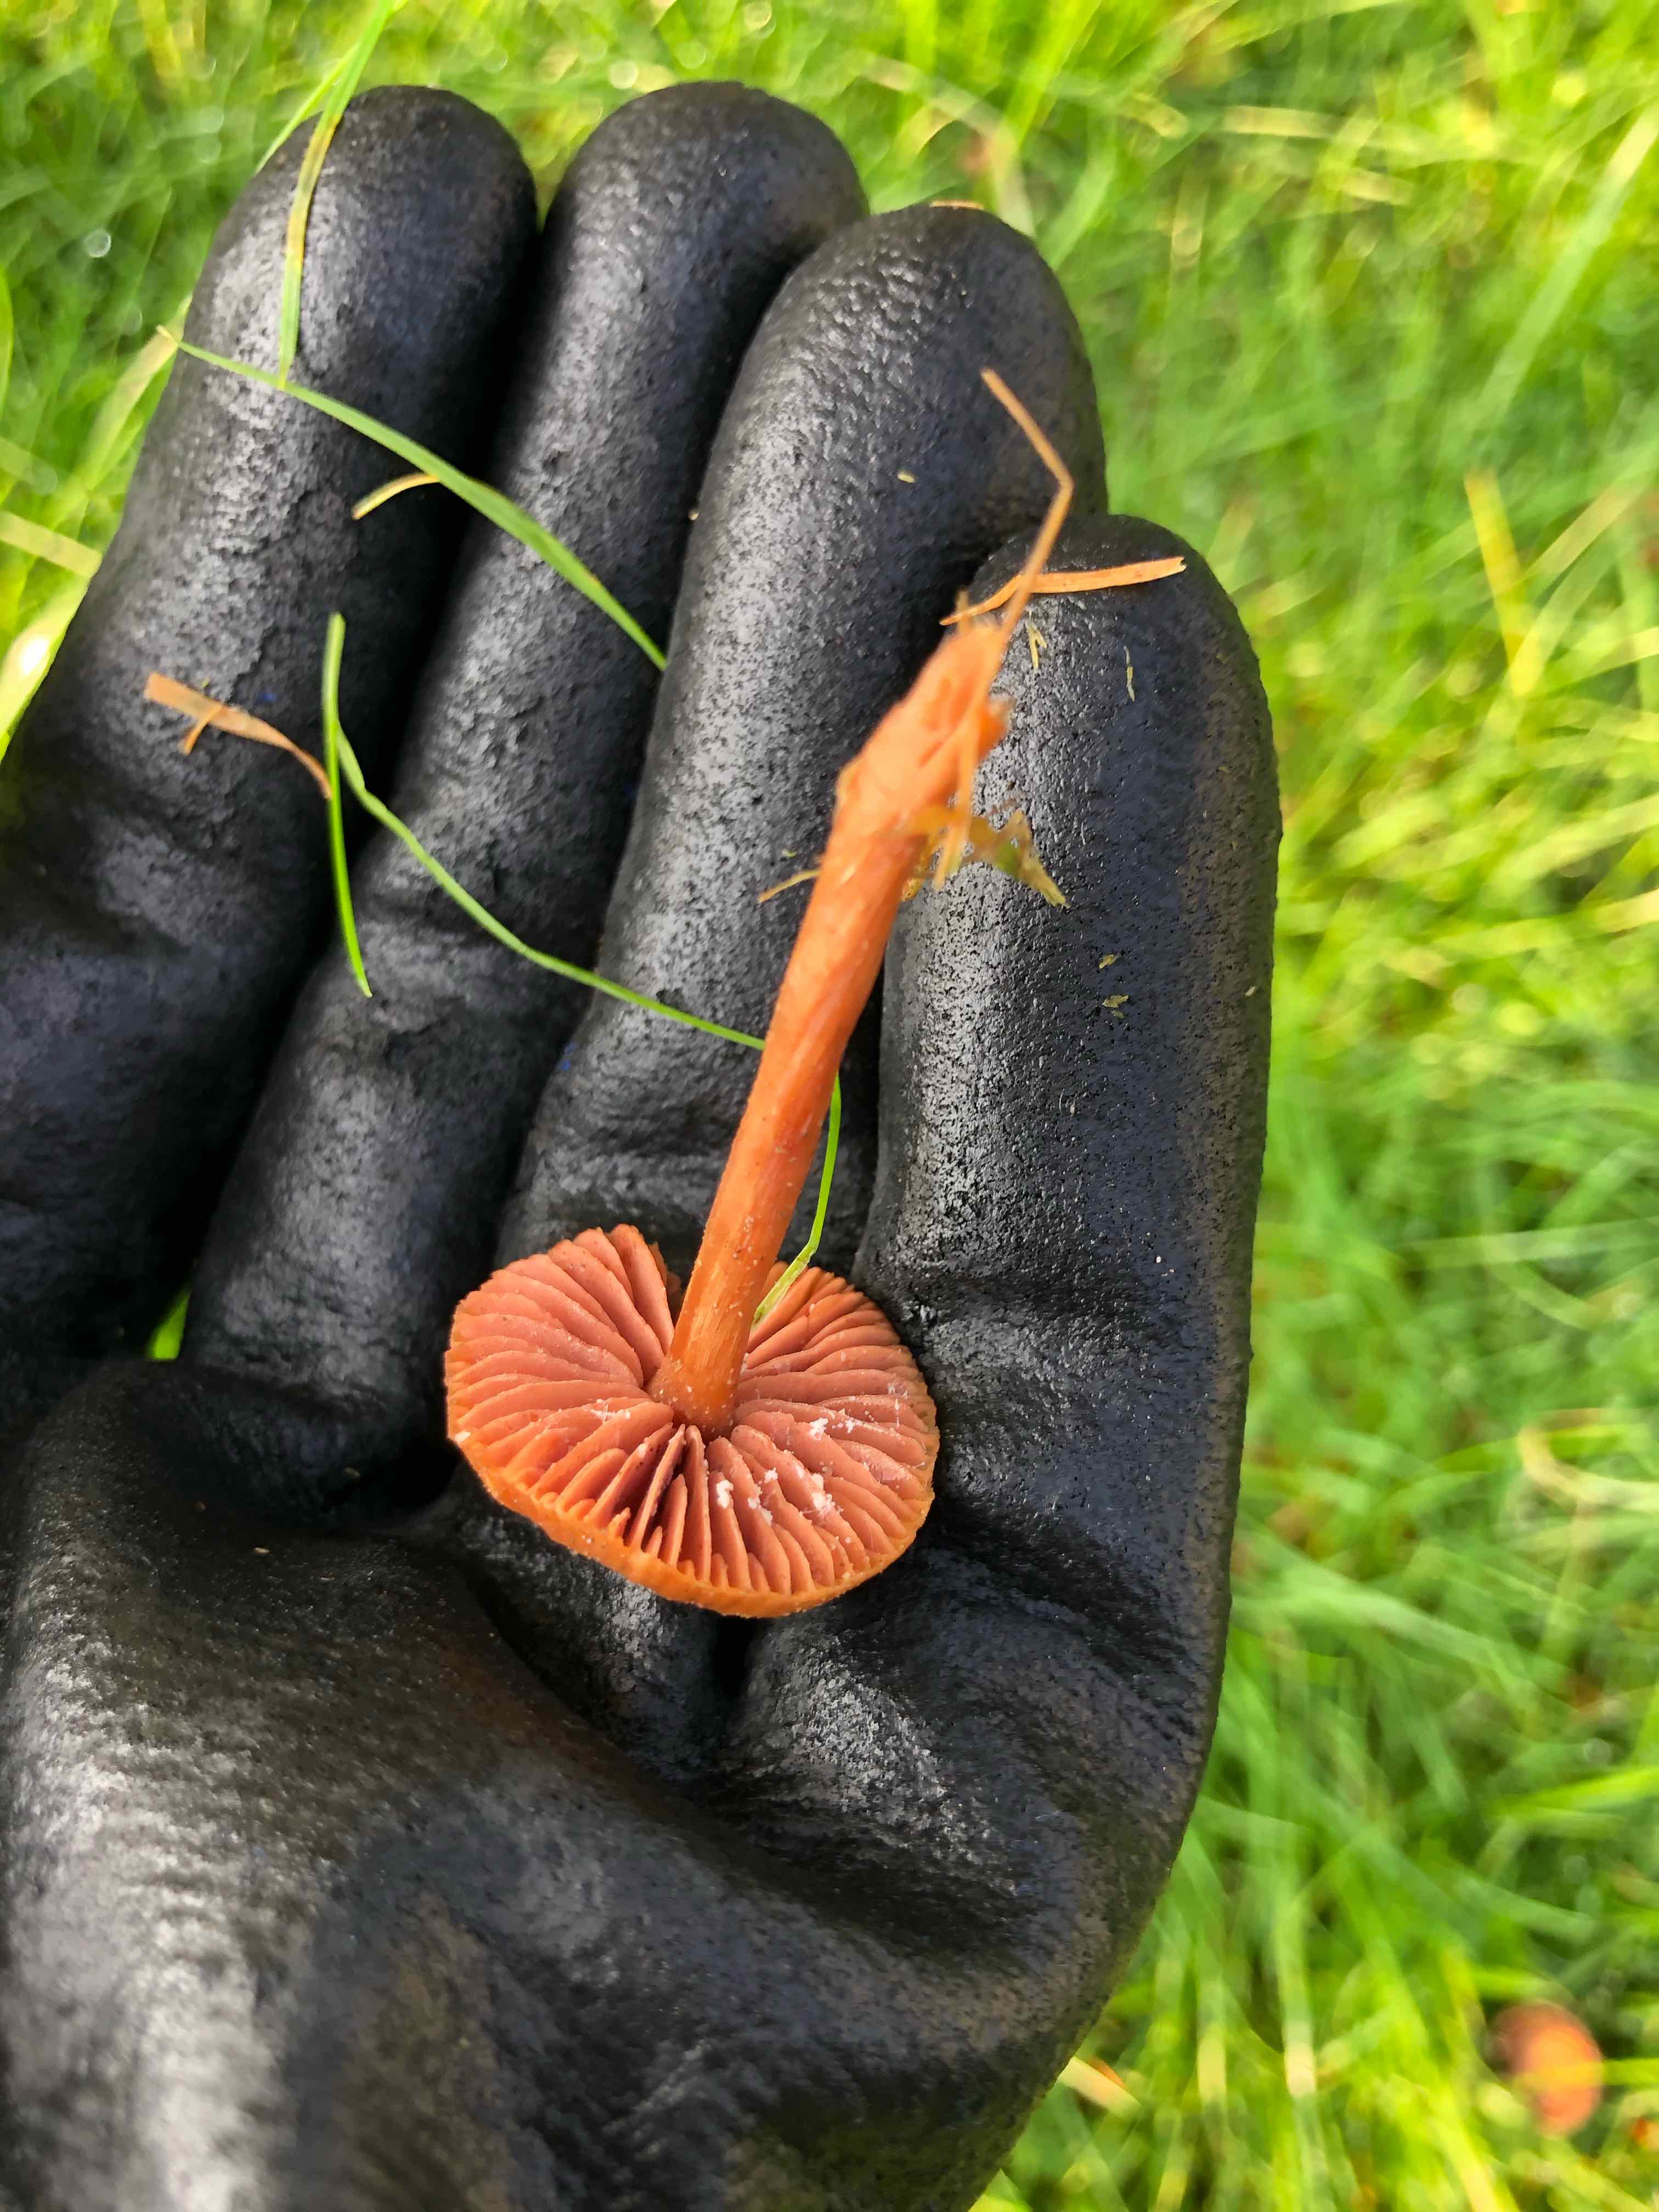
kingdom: Fungi
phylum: Basidiomycota
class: Agaricomycetes
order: Agaricales
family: Hydnangiaceae
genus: Laccaria
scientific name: Laccaria laccata
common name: rød ametysthat
